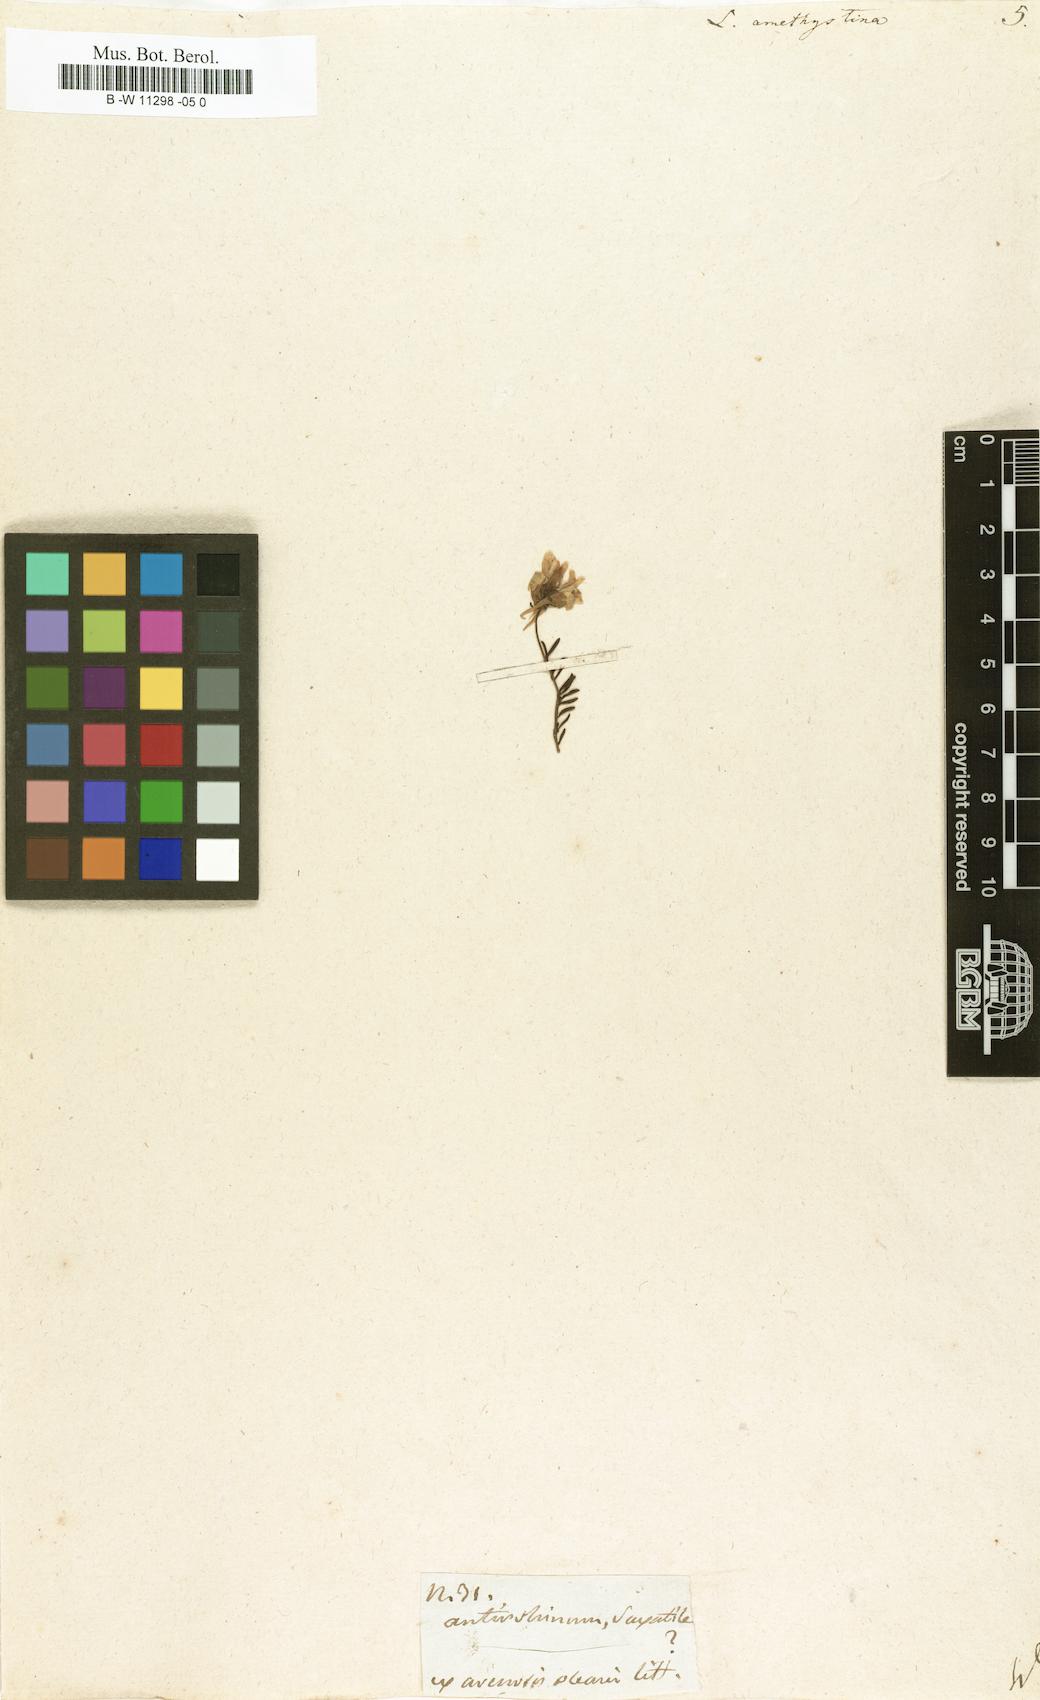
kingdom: Plantae
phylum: Tracheophyta
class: Magnoliopsida
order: Lamiales
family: Plantaginaceae
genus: Linaria
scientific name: Linaria incarnata
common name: Annual toadflax
